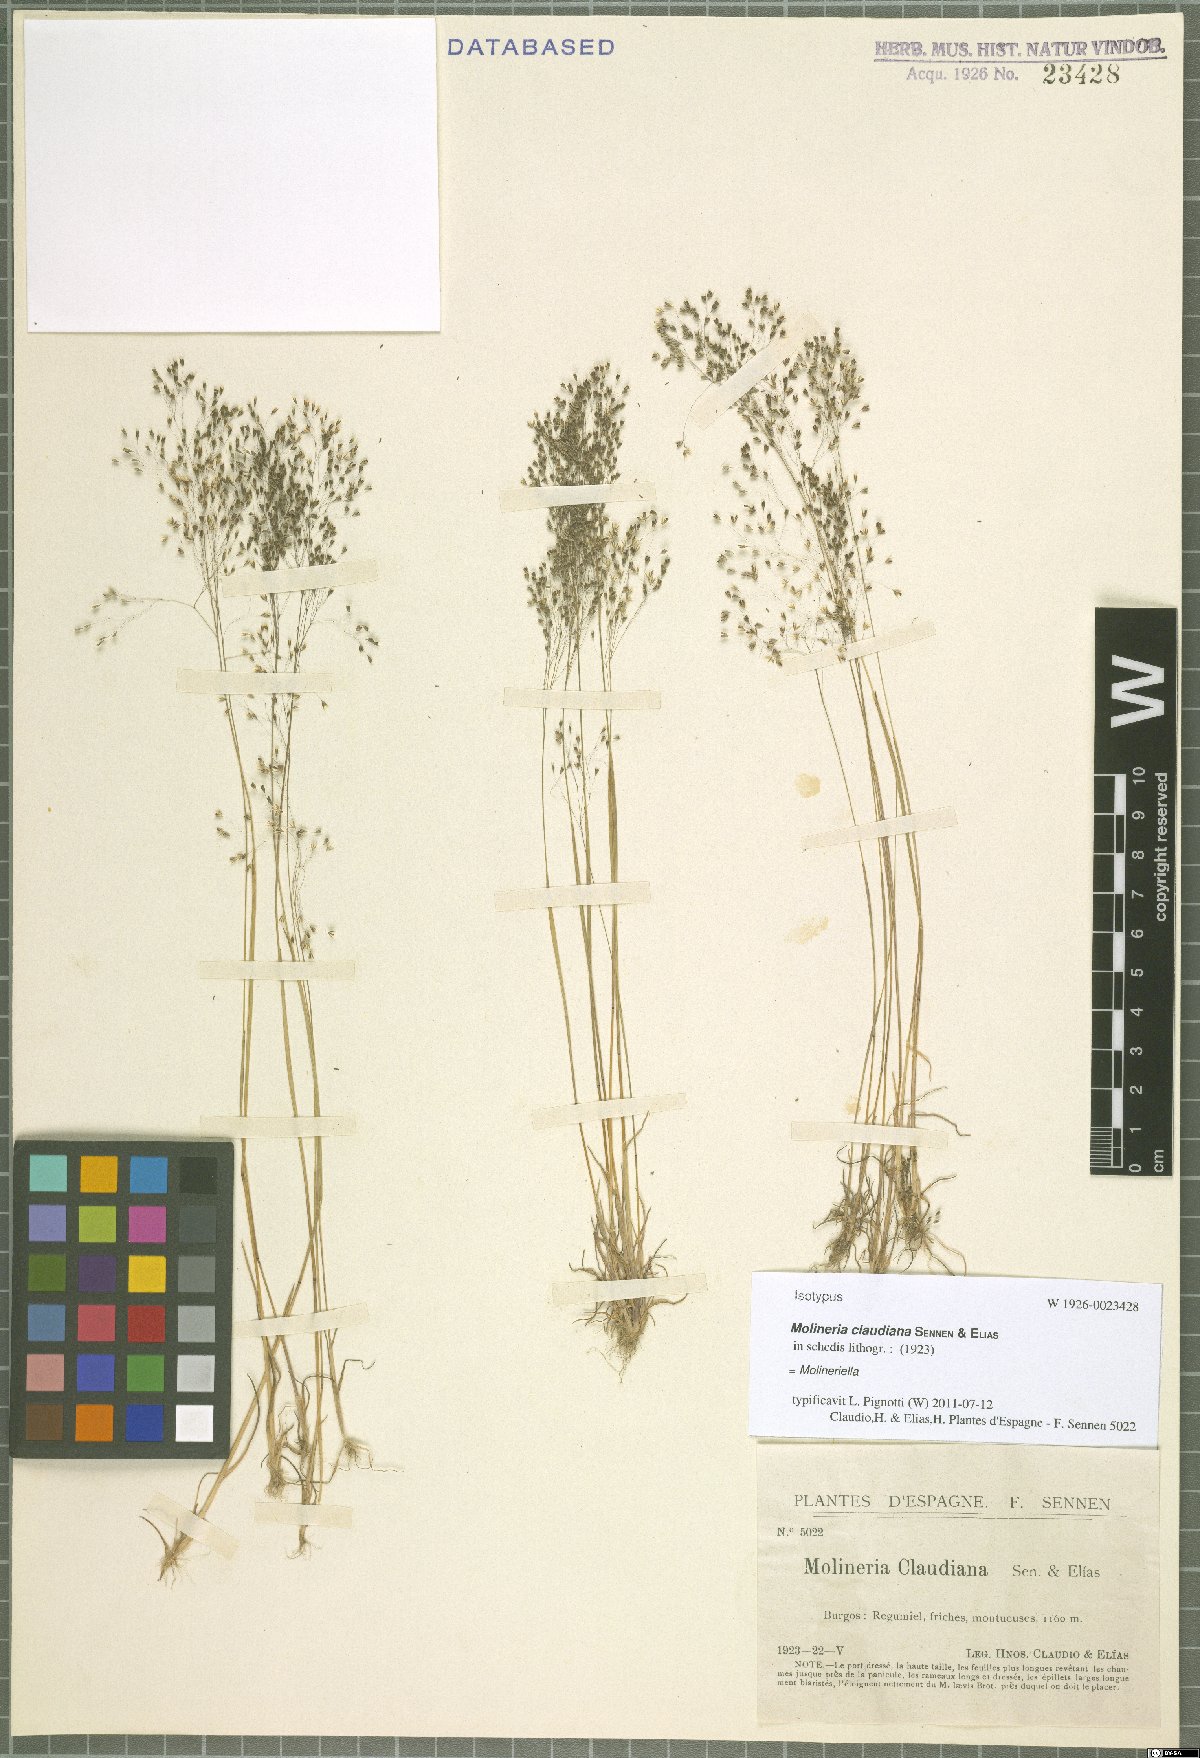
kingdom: Plantae
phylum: Tracheophyta
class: Liliopsida
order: Poales
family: Poaceae
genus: Molineriella
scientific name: Molineriella
